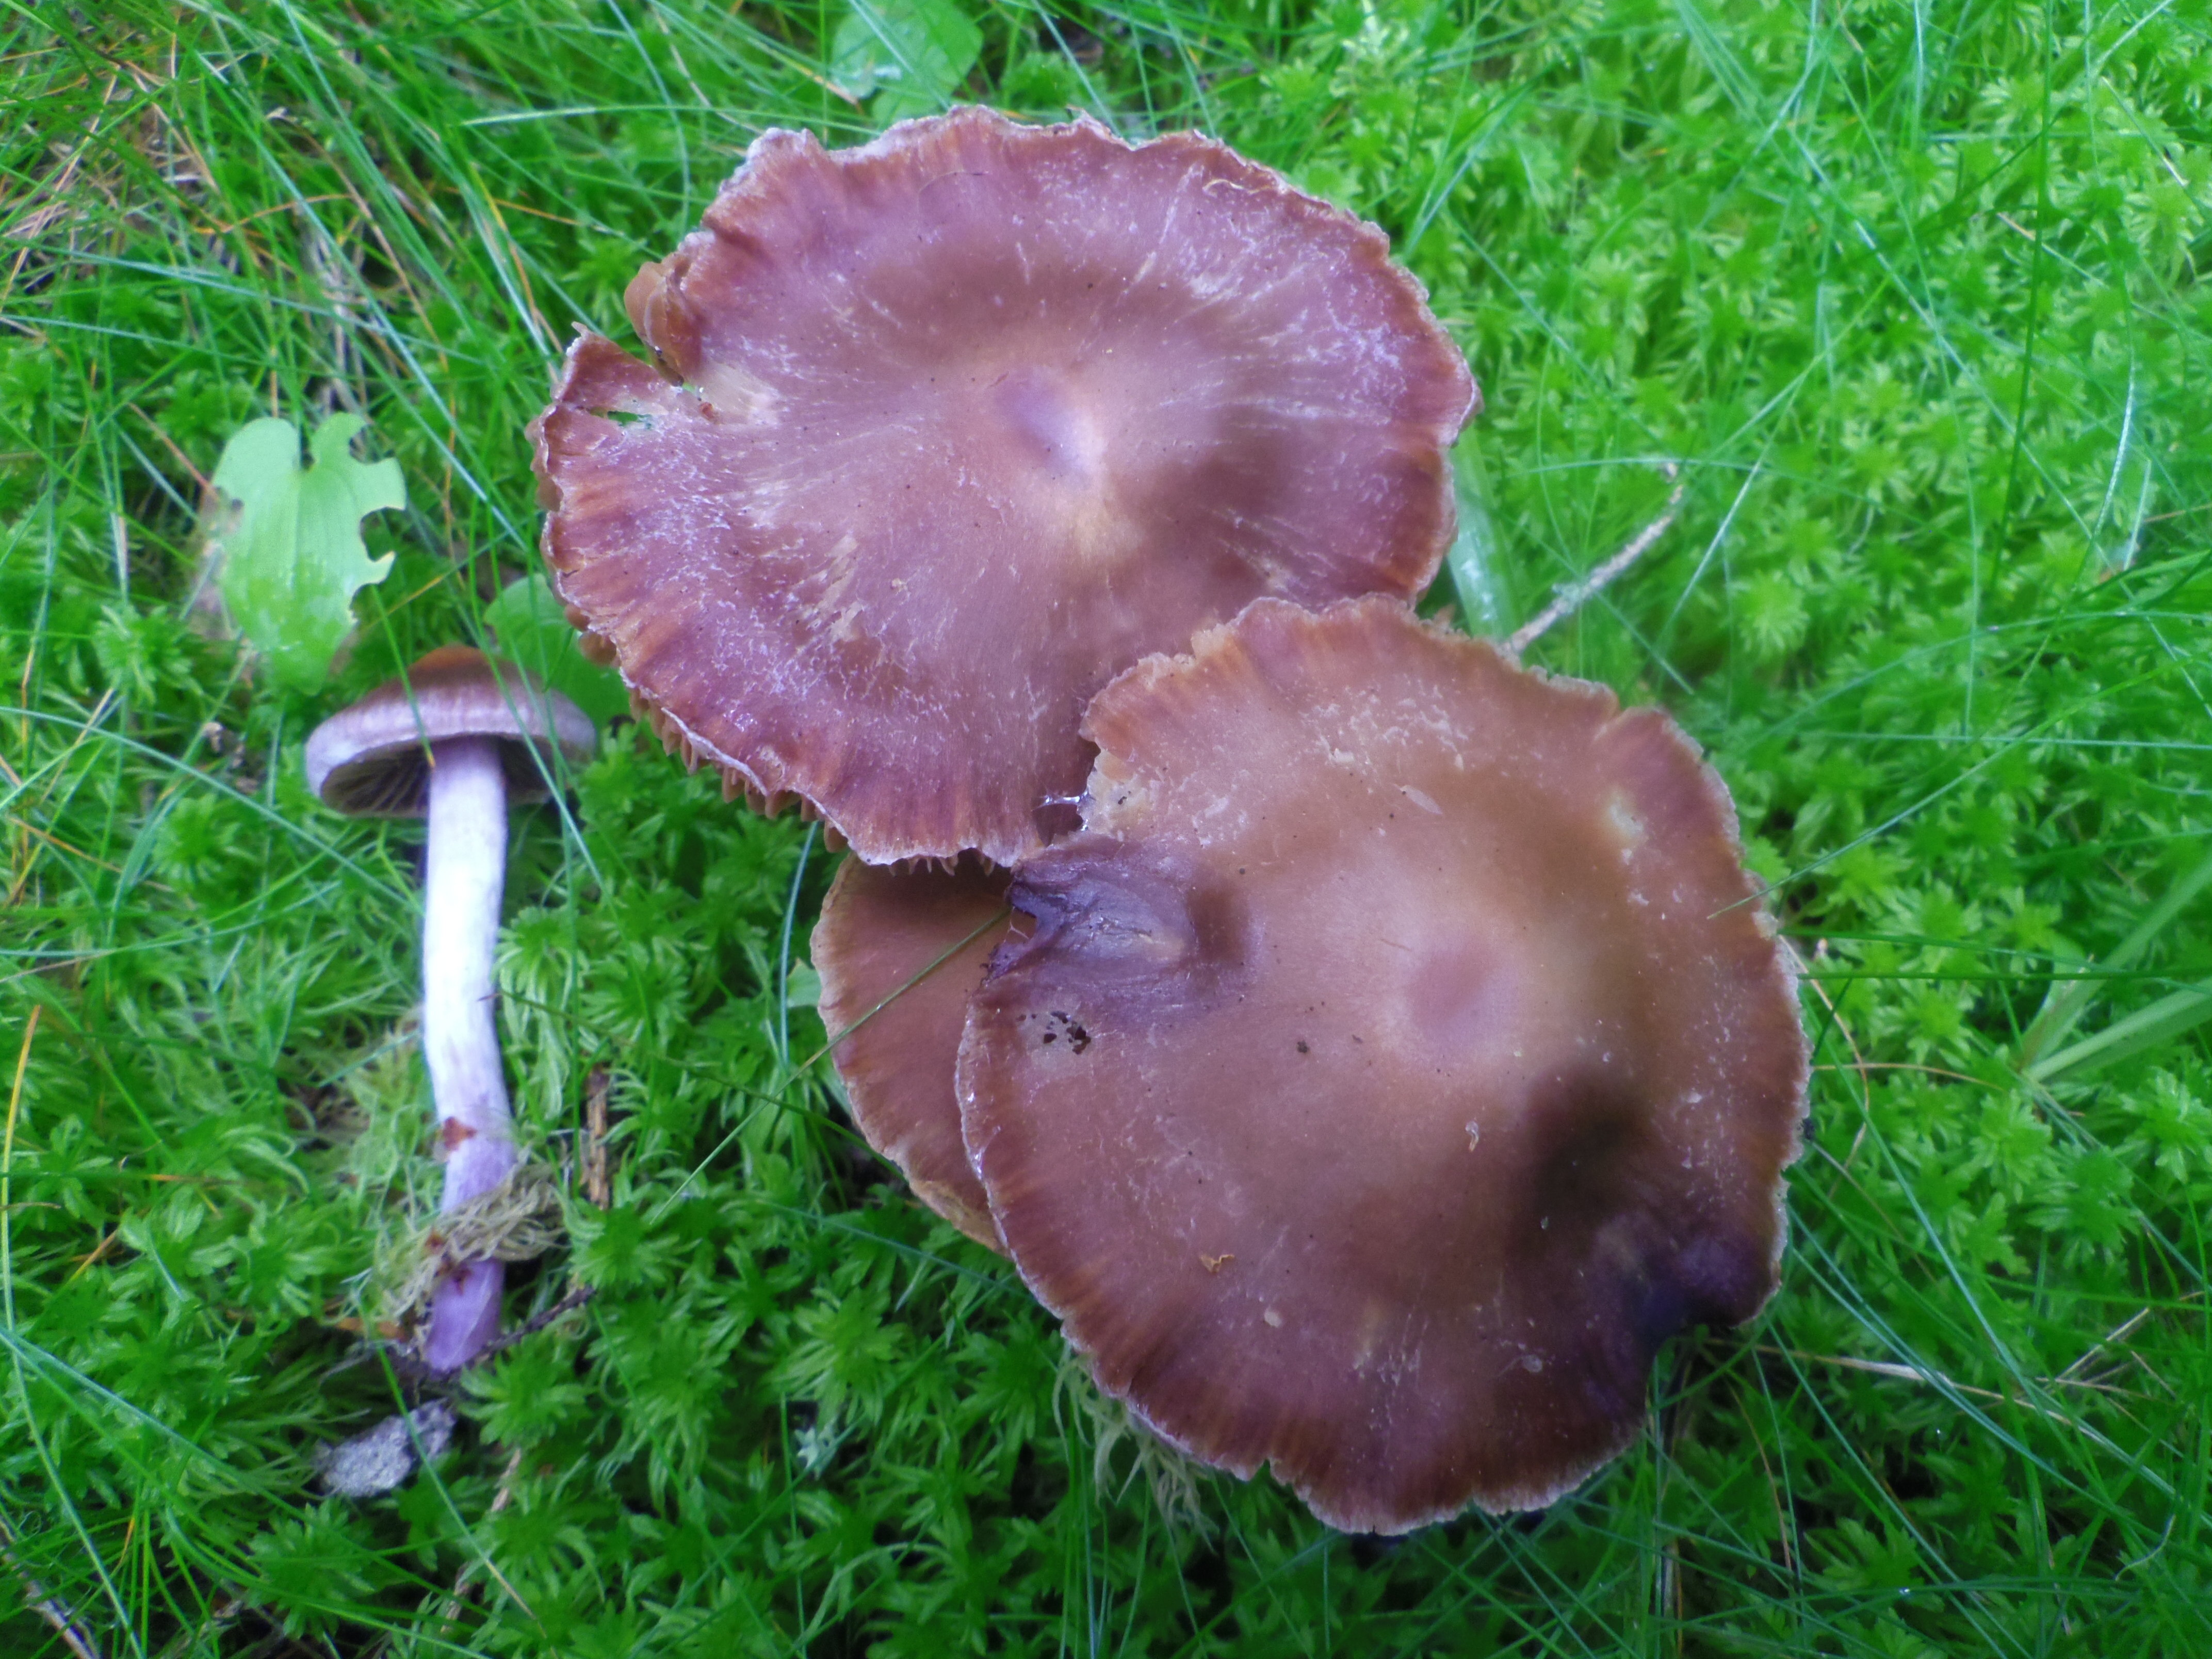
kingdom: Fungi
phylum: Basidiomycota
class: Agaricomycetes
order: Agaricales
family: Cortinariaceae
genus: Cortinarius
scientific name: Cortinarius evernius
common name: Silky webcap
